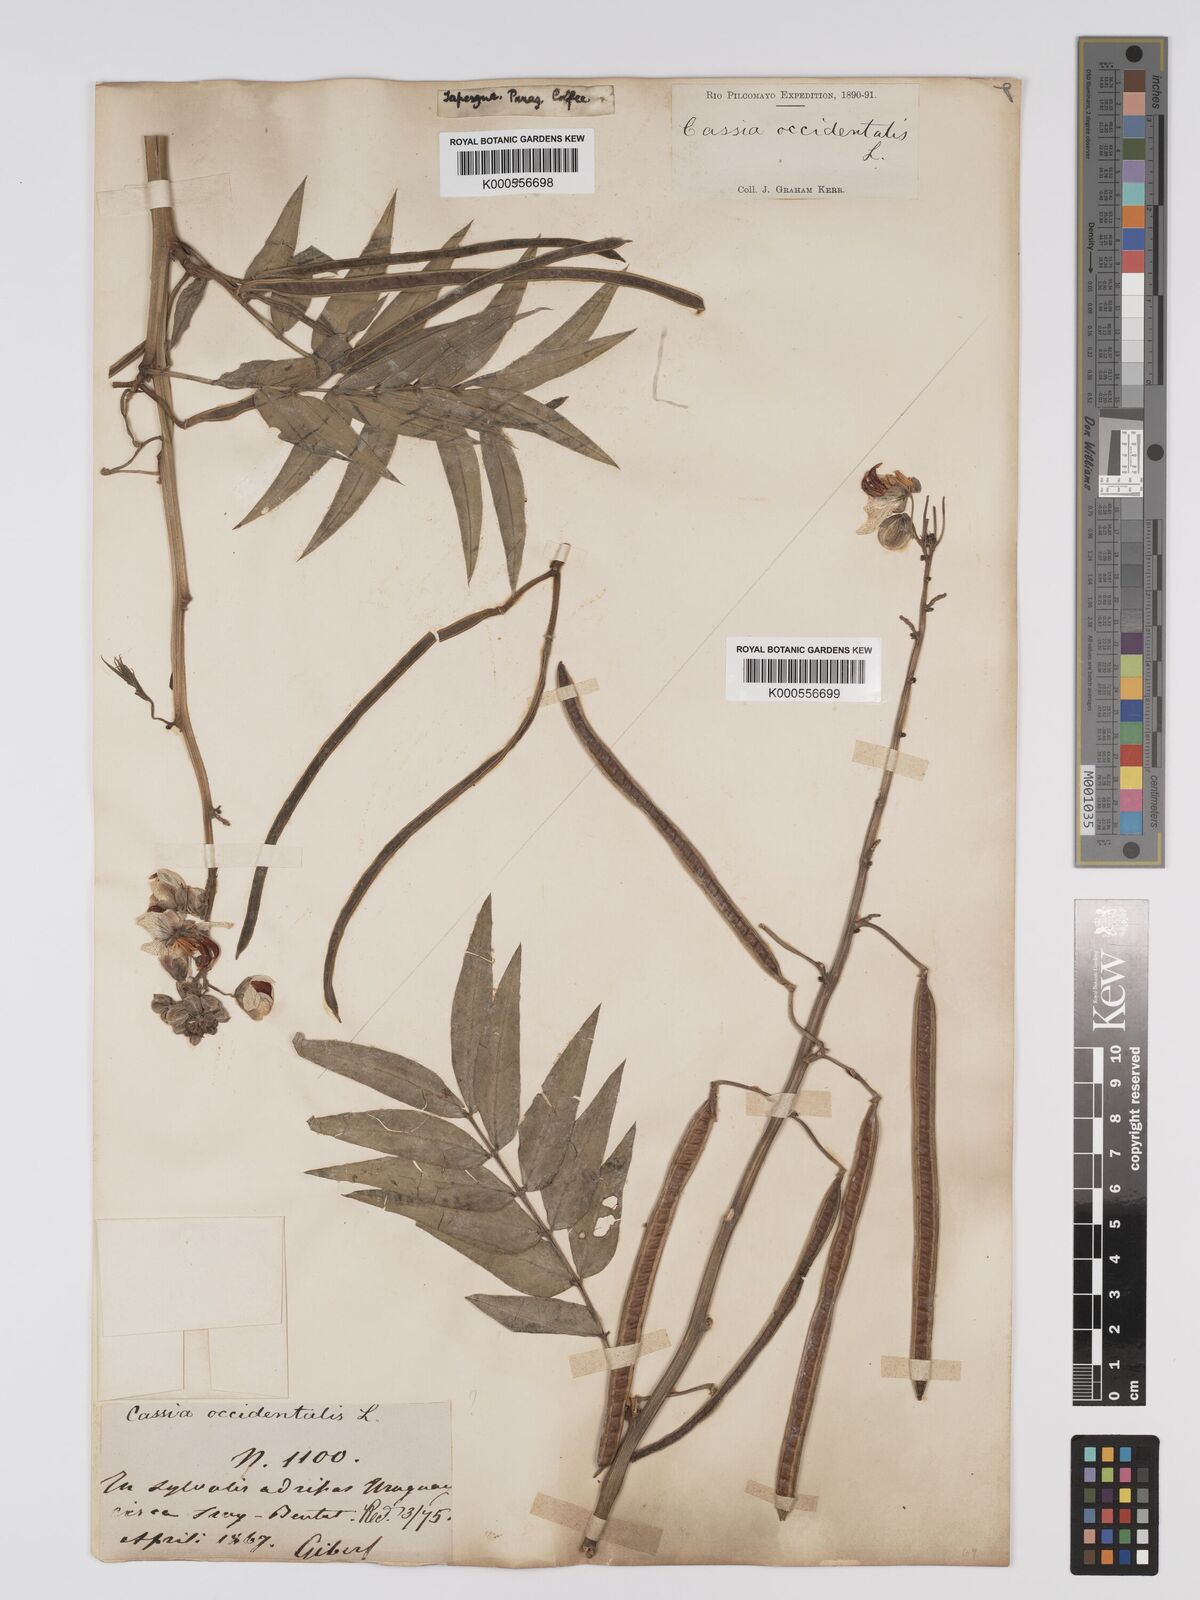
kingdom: Plantae
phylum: Tracheophyta
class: Magnoliopsida
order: Fabales
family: Fabaceae
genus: Senna
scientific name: Senna occidentalis
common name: Septicweed
